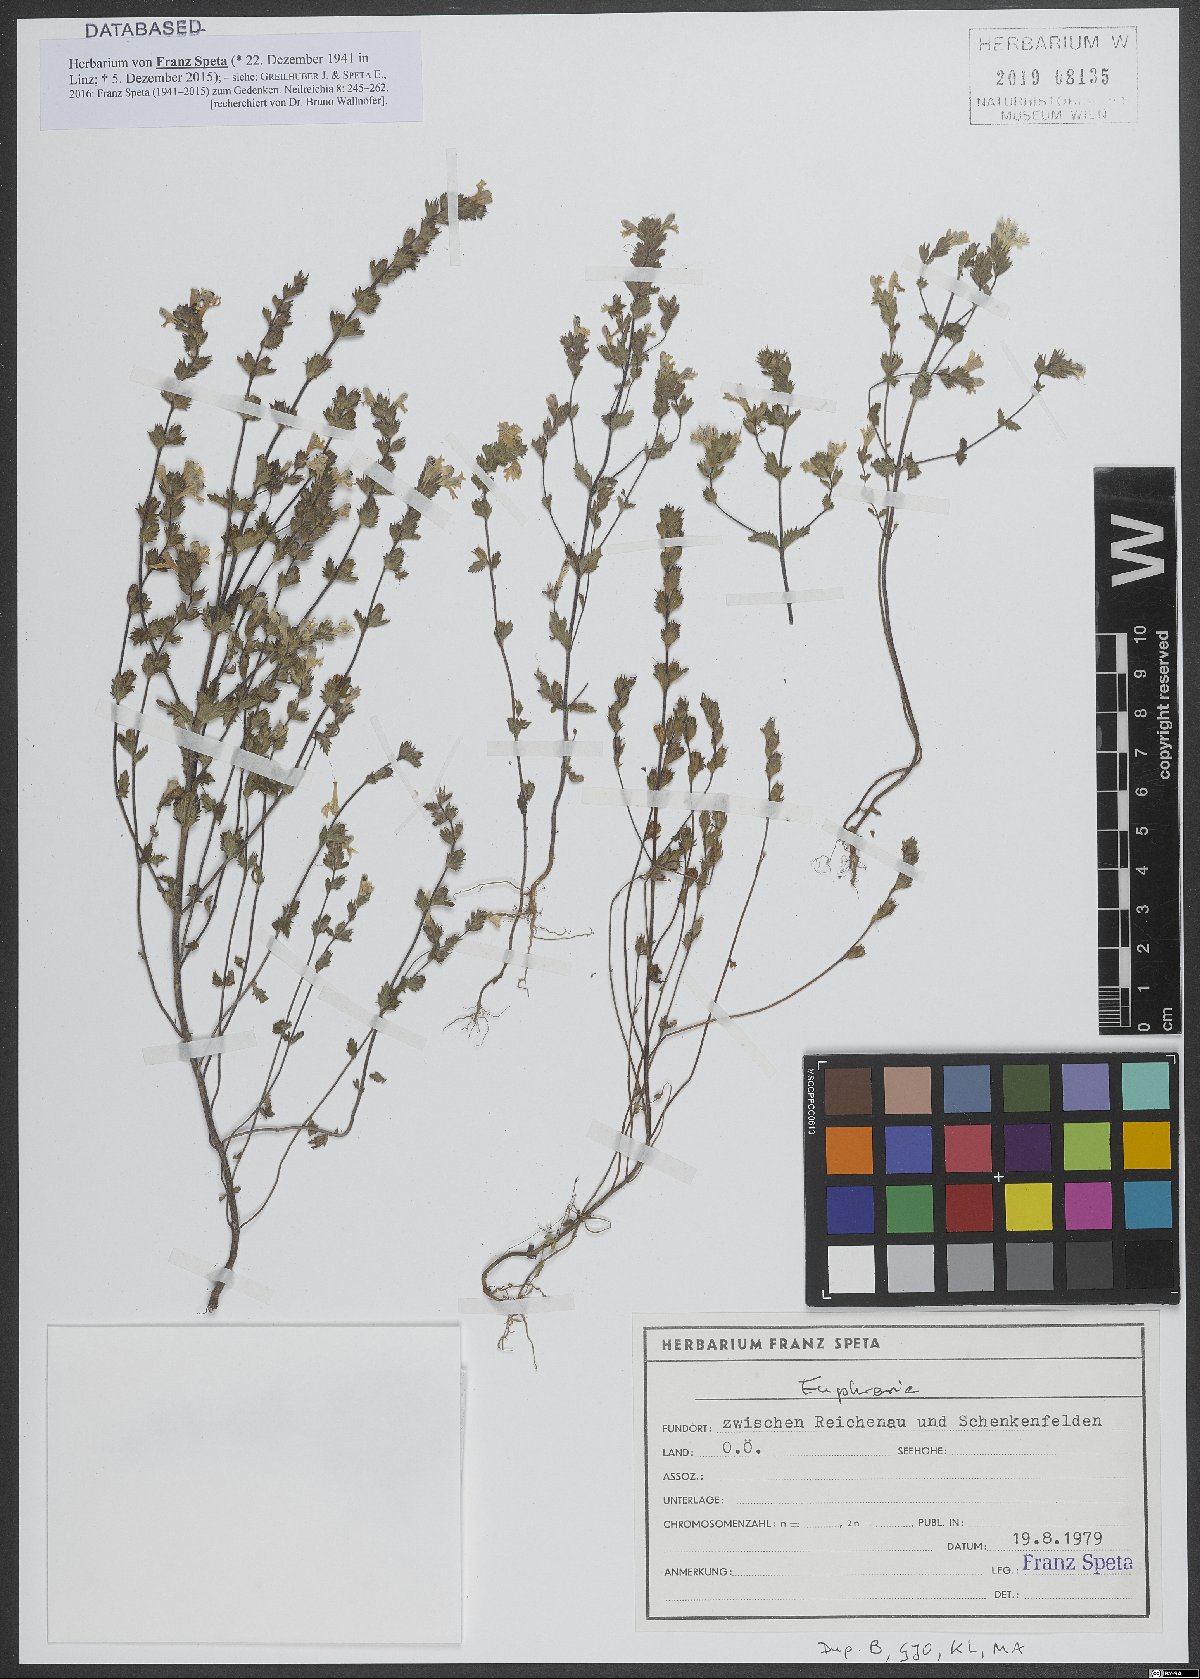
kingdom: Plantae
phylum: Tracheophyta
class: Magnoliopsida
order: Lamiales
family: Orobanchaceae
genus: Euphrasia
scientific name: Euphrasia
